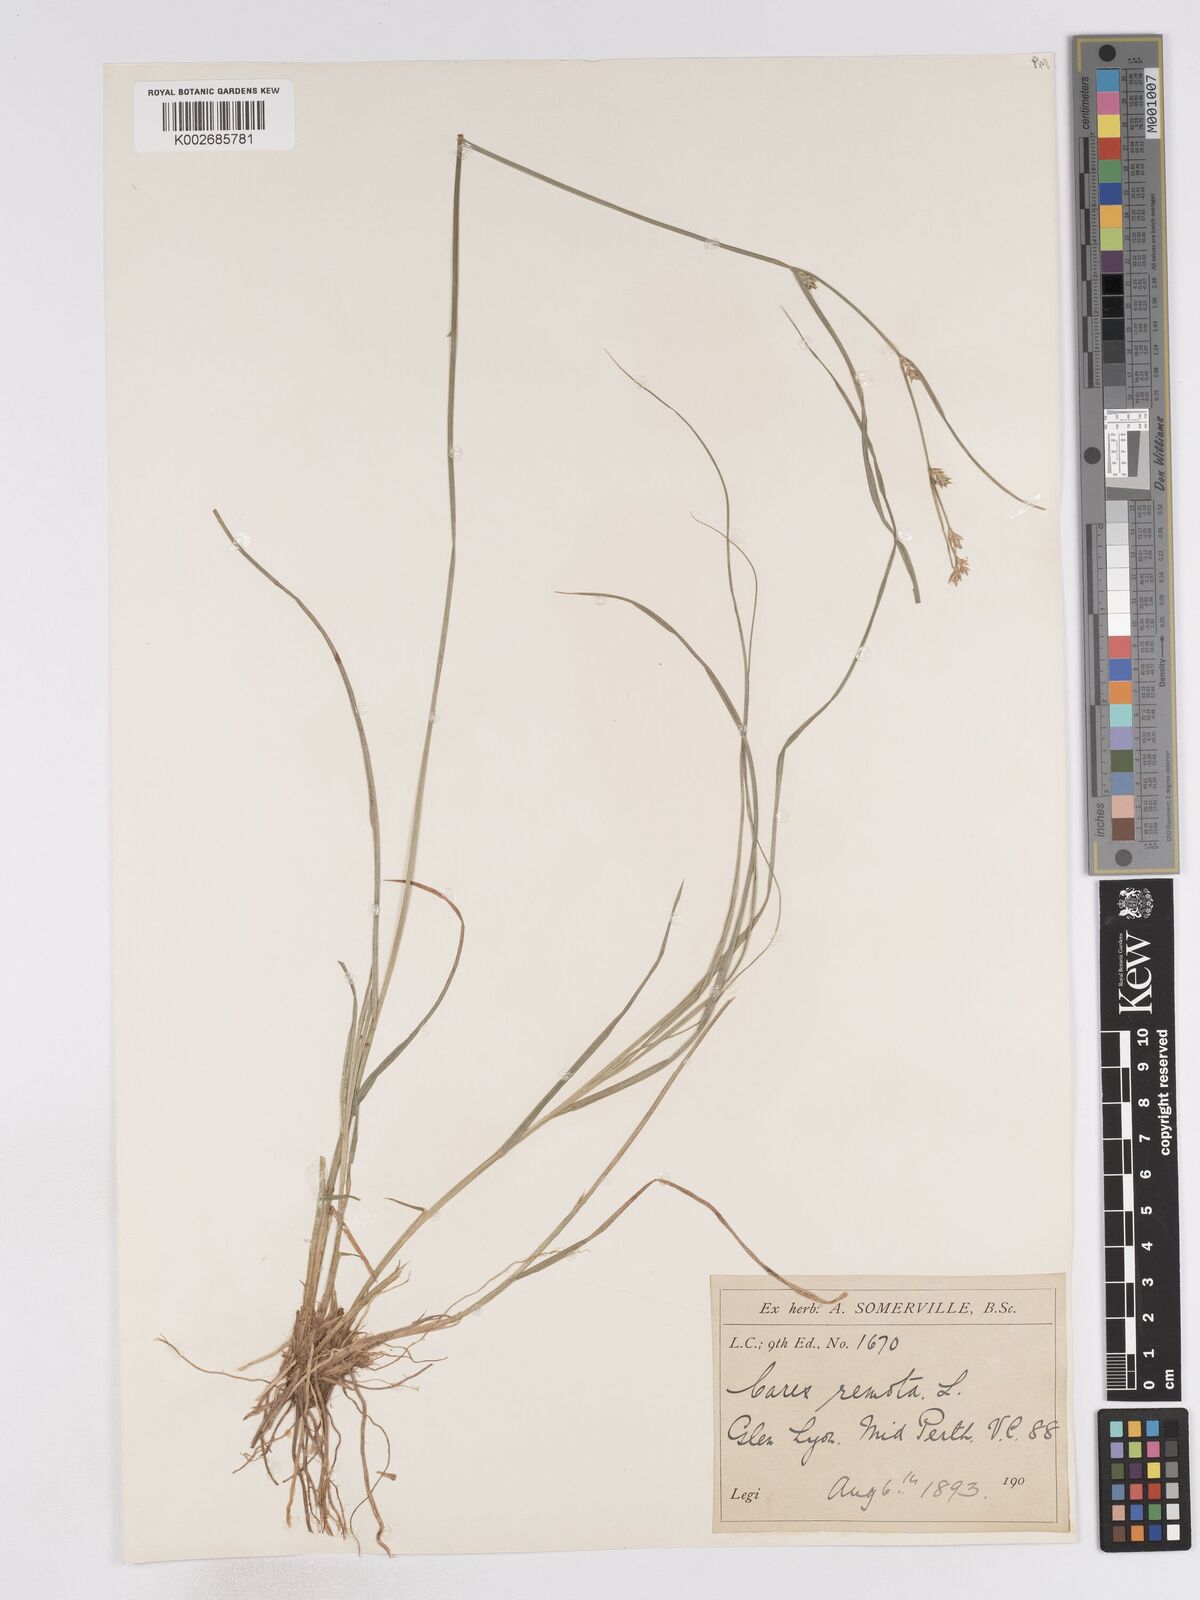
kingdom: Plantae
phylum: Tracheophyta
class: Liliopsida
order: Poales
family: Cyperaceae
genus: Carex
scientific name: Carex remota
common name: Remote sedge
